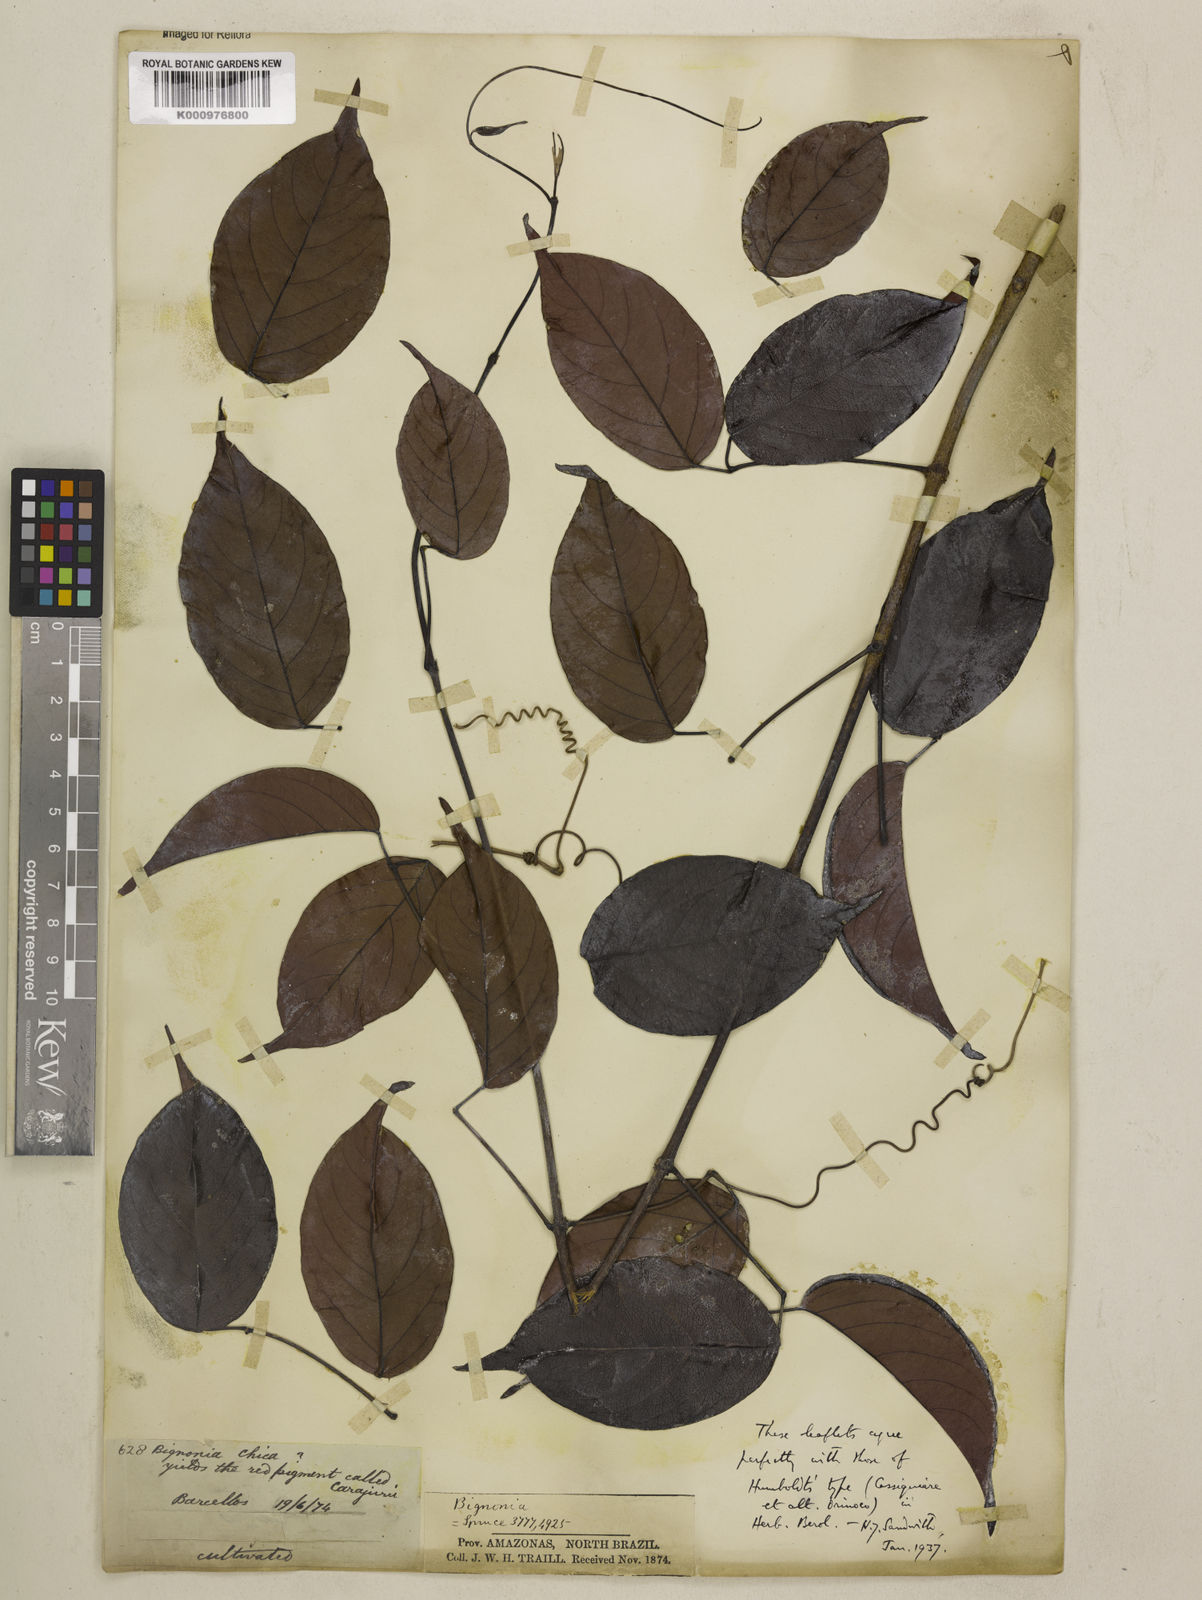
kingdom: Plantae
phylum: Tracheophyta
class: Magnoliopsida
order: Lamiales
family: Bignoniaceae
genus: Fridericia
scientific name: Fridericia chica
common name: Cricketvine
